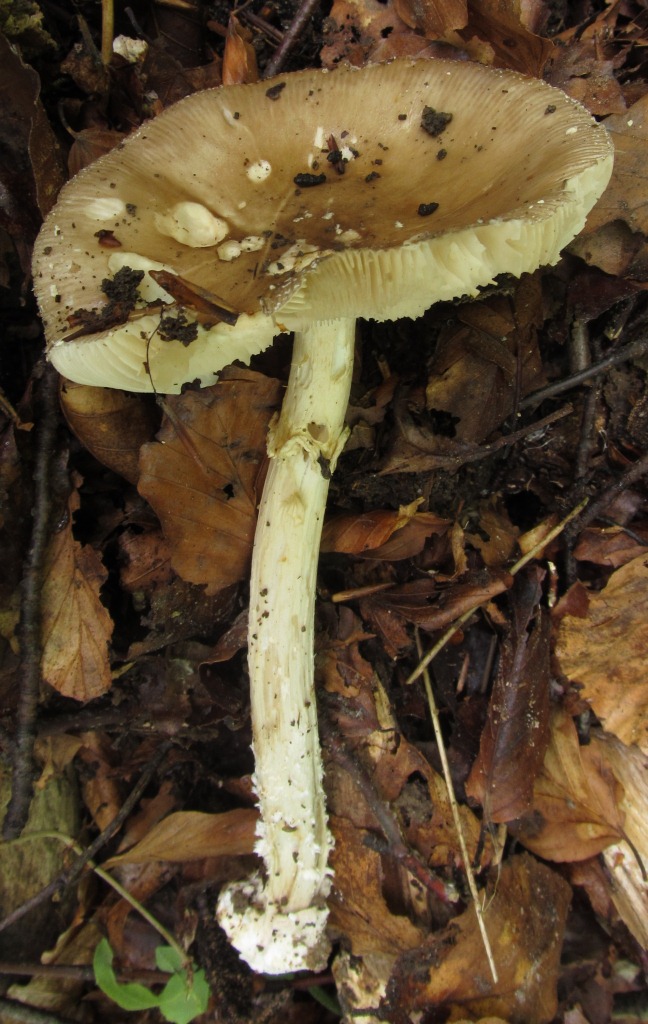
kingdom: Fungi
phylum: Basidiomycota
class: Agaricomycetes
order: Agaricales
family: Amanitaceae
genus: Amanita
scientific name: Amanita pantherina
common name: panter-fluesvamp
